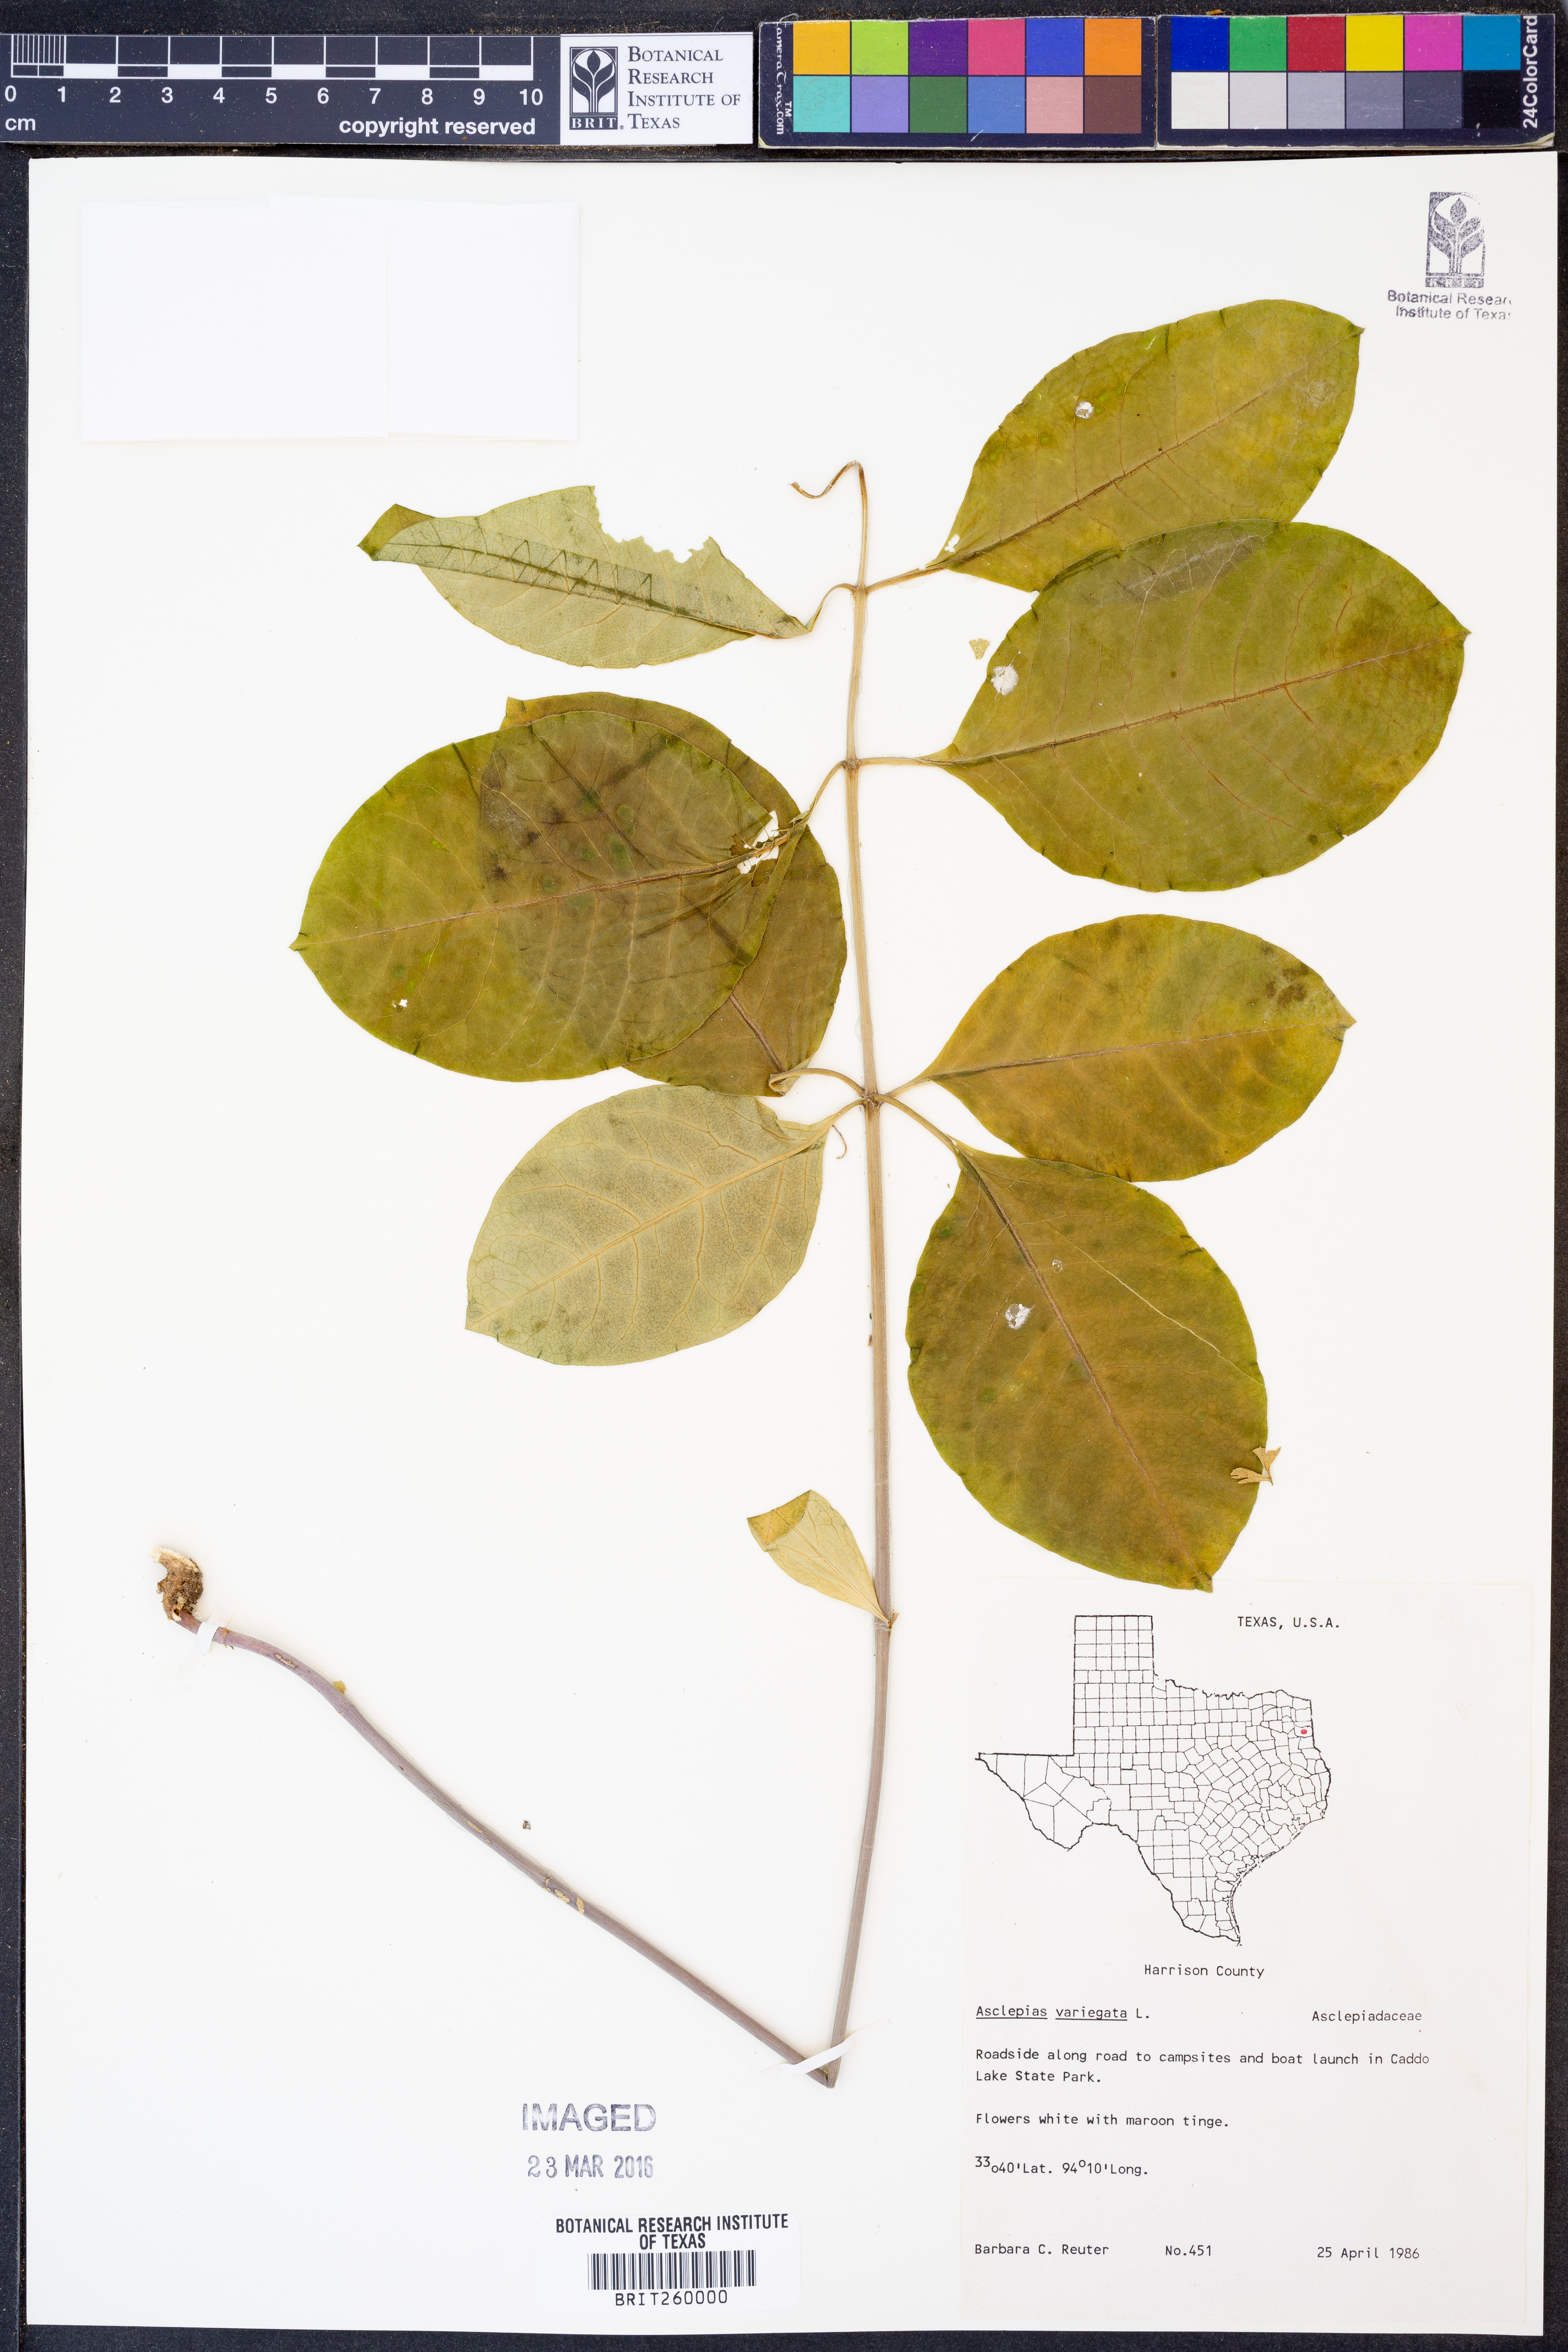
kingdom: Plantae
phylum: Tracheophyta
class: Magnoliopsida
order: Gentianales
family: Apocynaceae
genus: Asclepias
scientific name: Asclepias variegata
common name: Variegated milkweed
